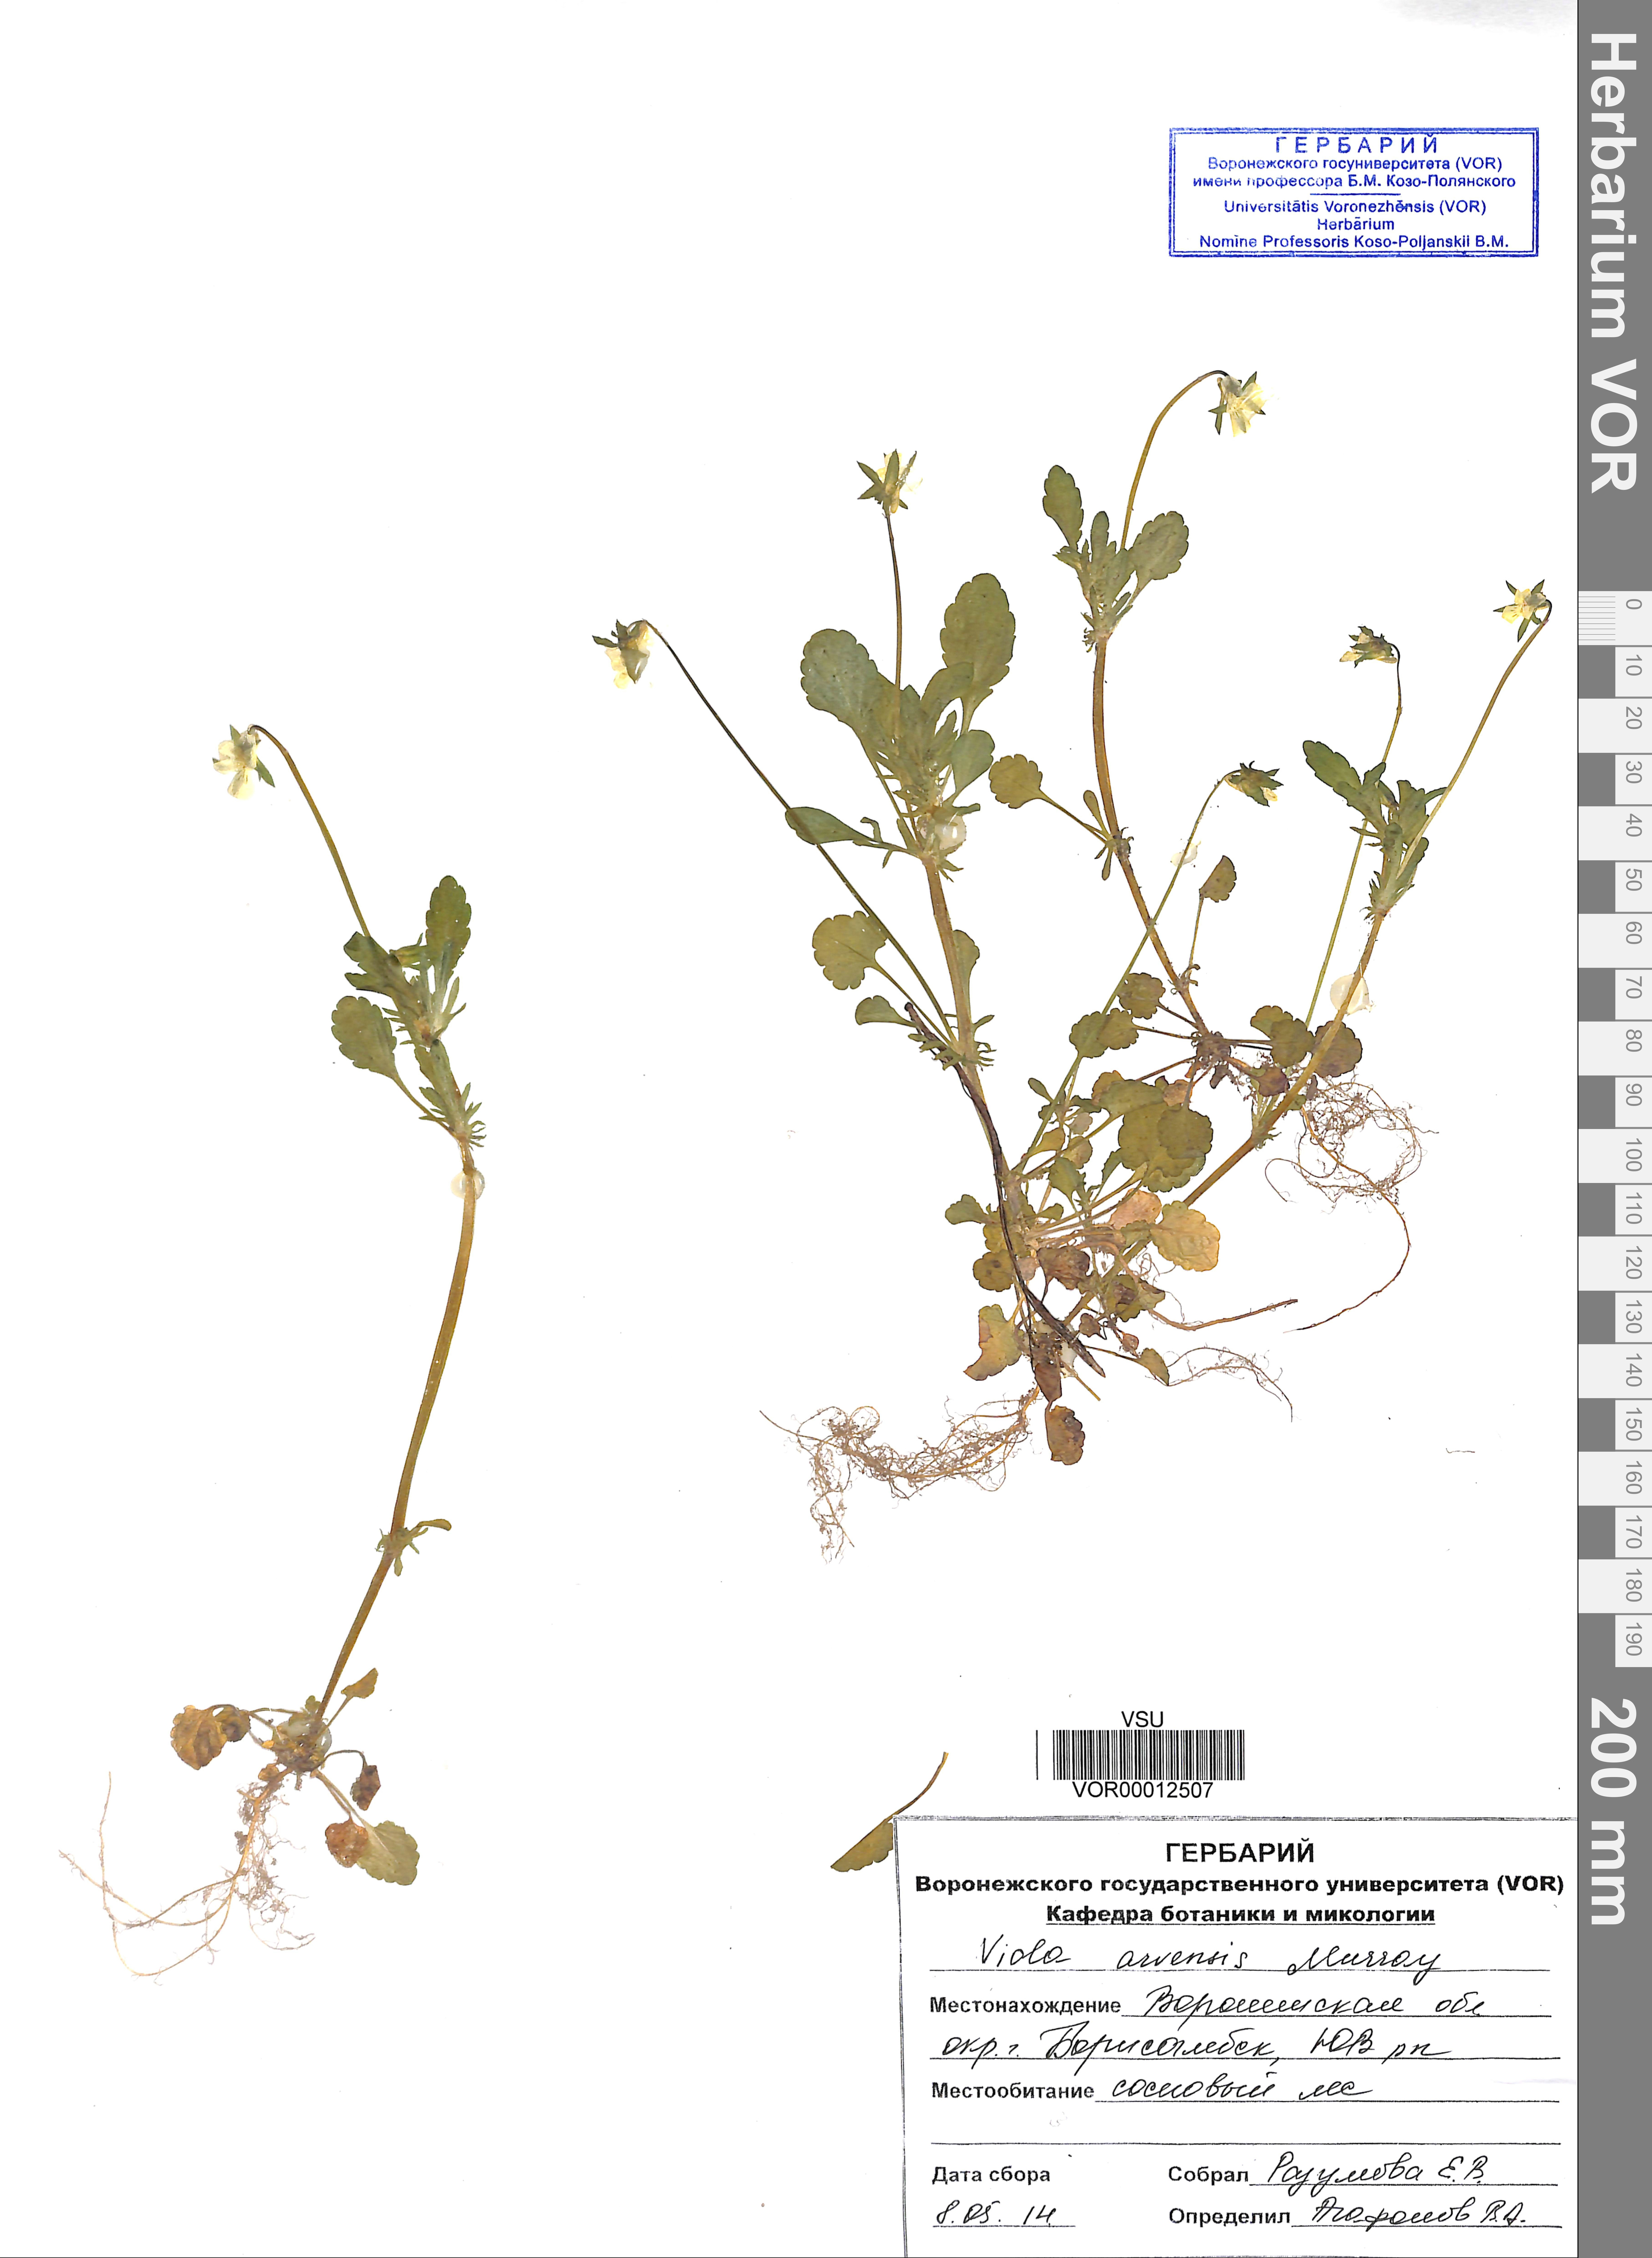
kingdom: Plantae
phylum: Tracheophyta
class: Magnoliopsida
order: Malpighiales
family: Violaceae
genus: Viola
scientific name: Viola arvensis
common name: Field pansy
